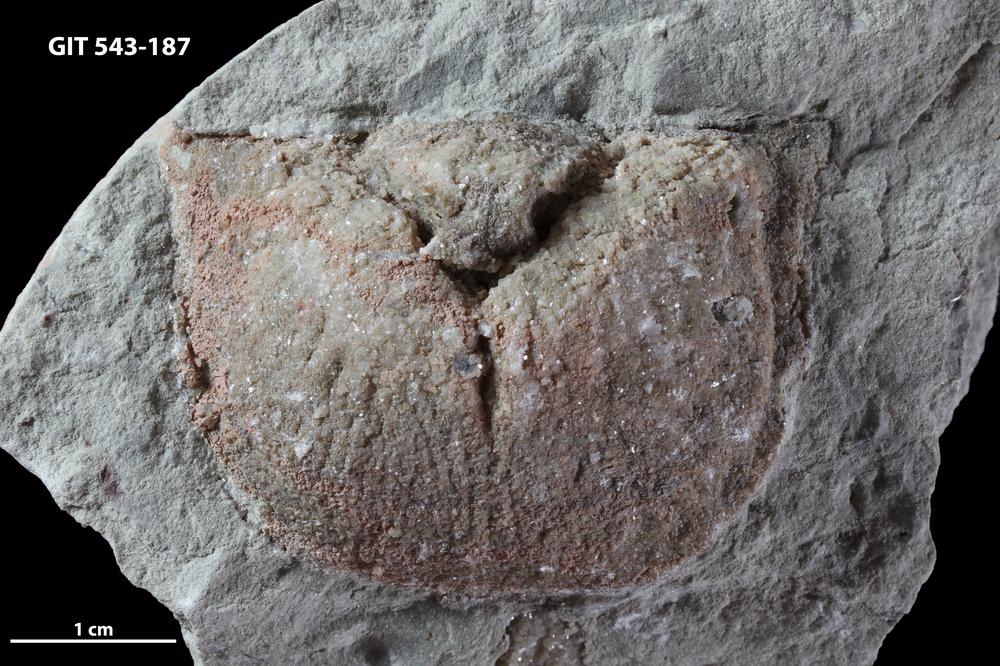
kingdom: Animalia
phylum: Brachiopoda
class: Rhynchonellata
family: Clitambonitidae
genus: Clinambon
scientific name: Clinambon
